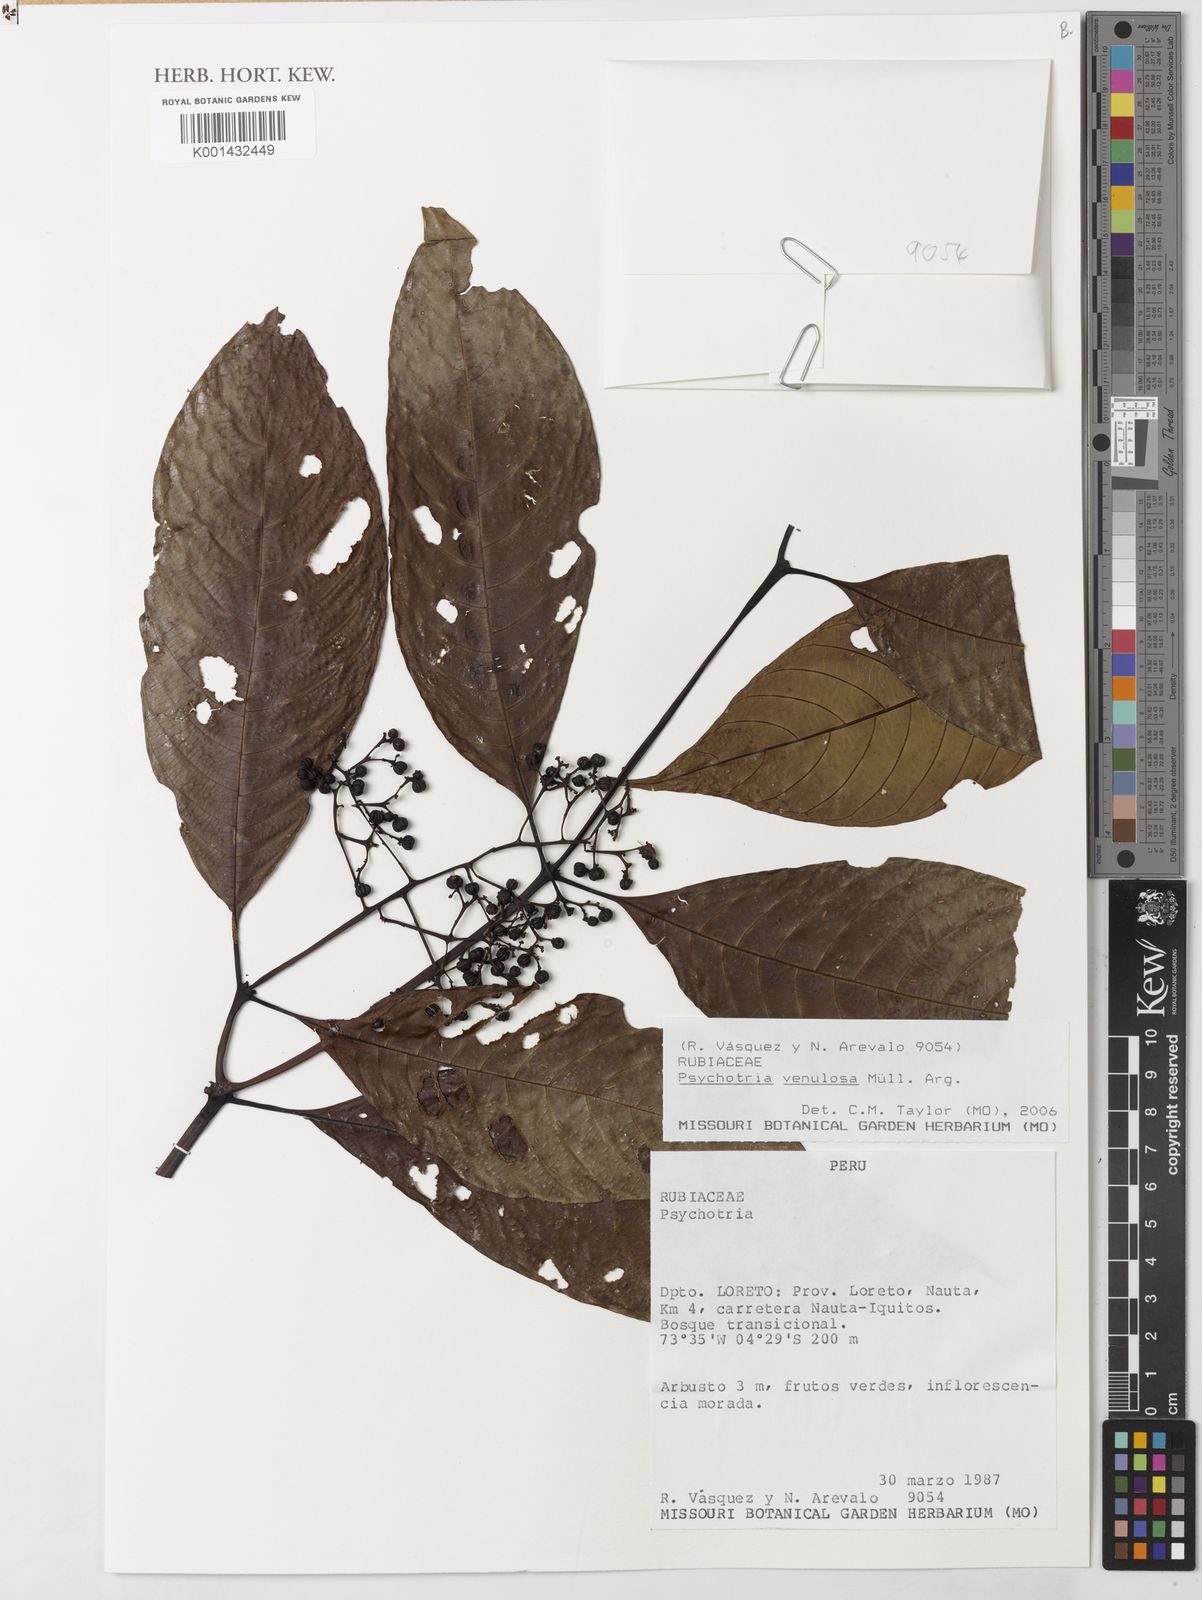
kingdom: Plantae
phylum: Tracheophyta
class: Magnoliopsida
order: Gentianales
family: Rubiaceae
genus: Psychotria
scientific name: Psychotria
